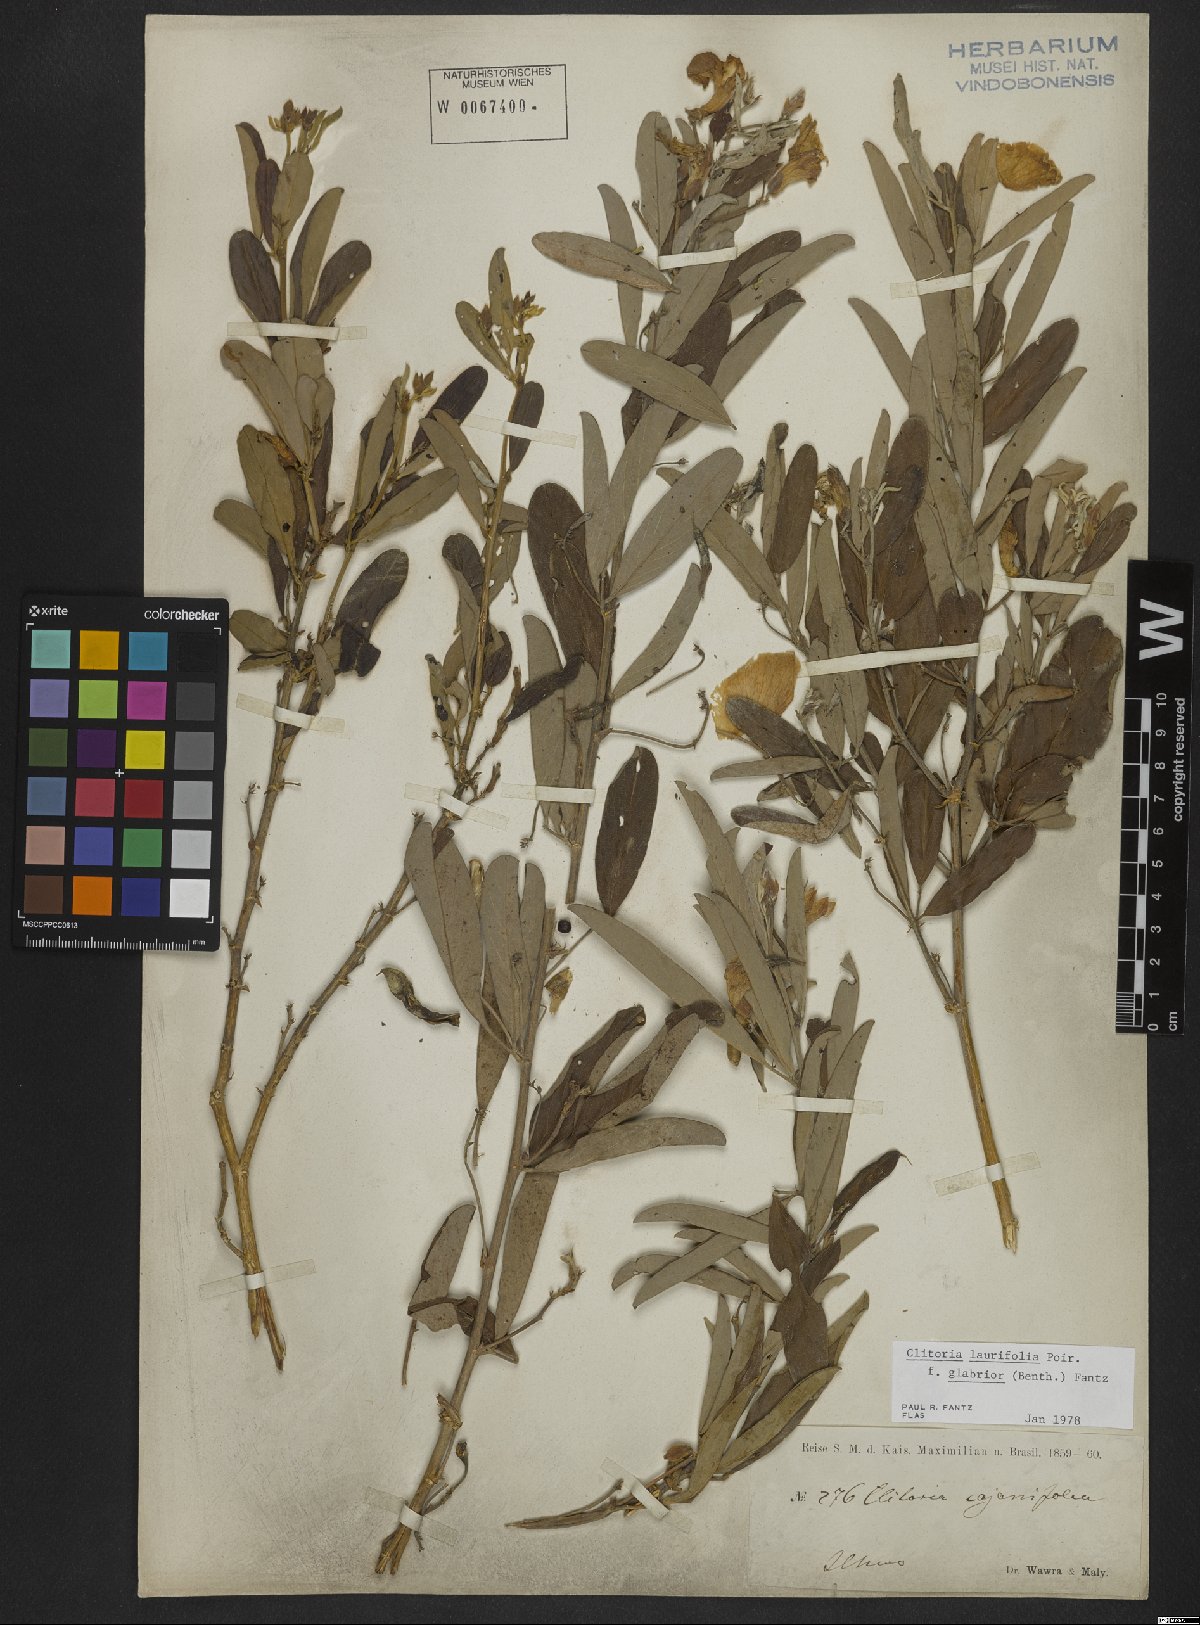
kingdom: Plantae
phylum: Tracheophyta
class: Magnoliopsida
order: Fabales
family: Fabaceae
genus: Clitoria
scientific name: Clitoria laurifolia
